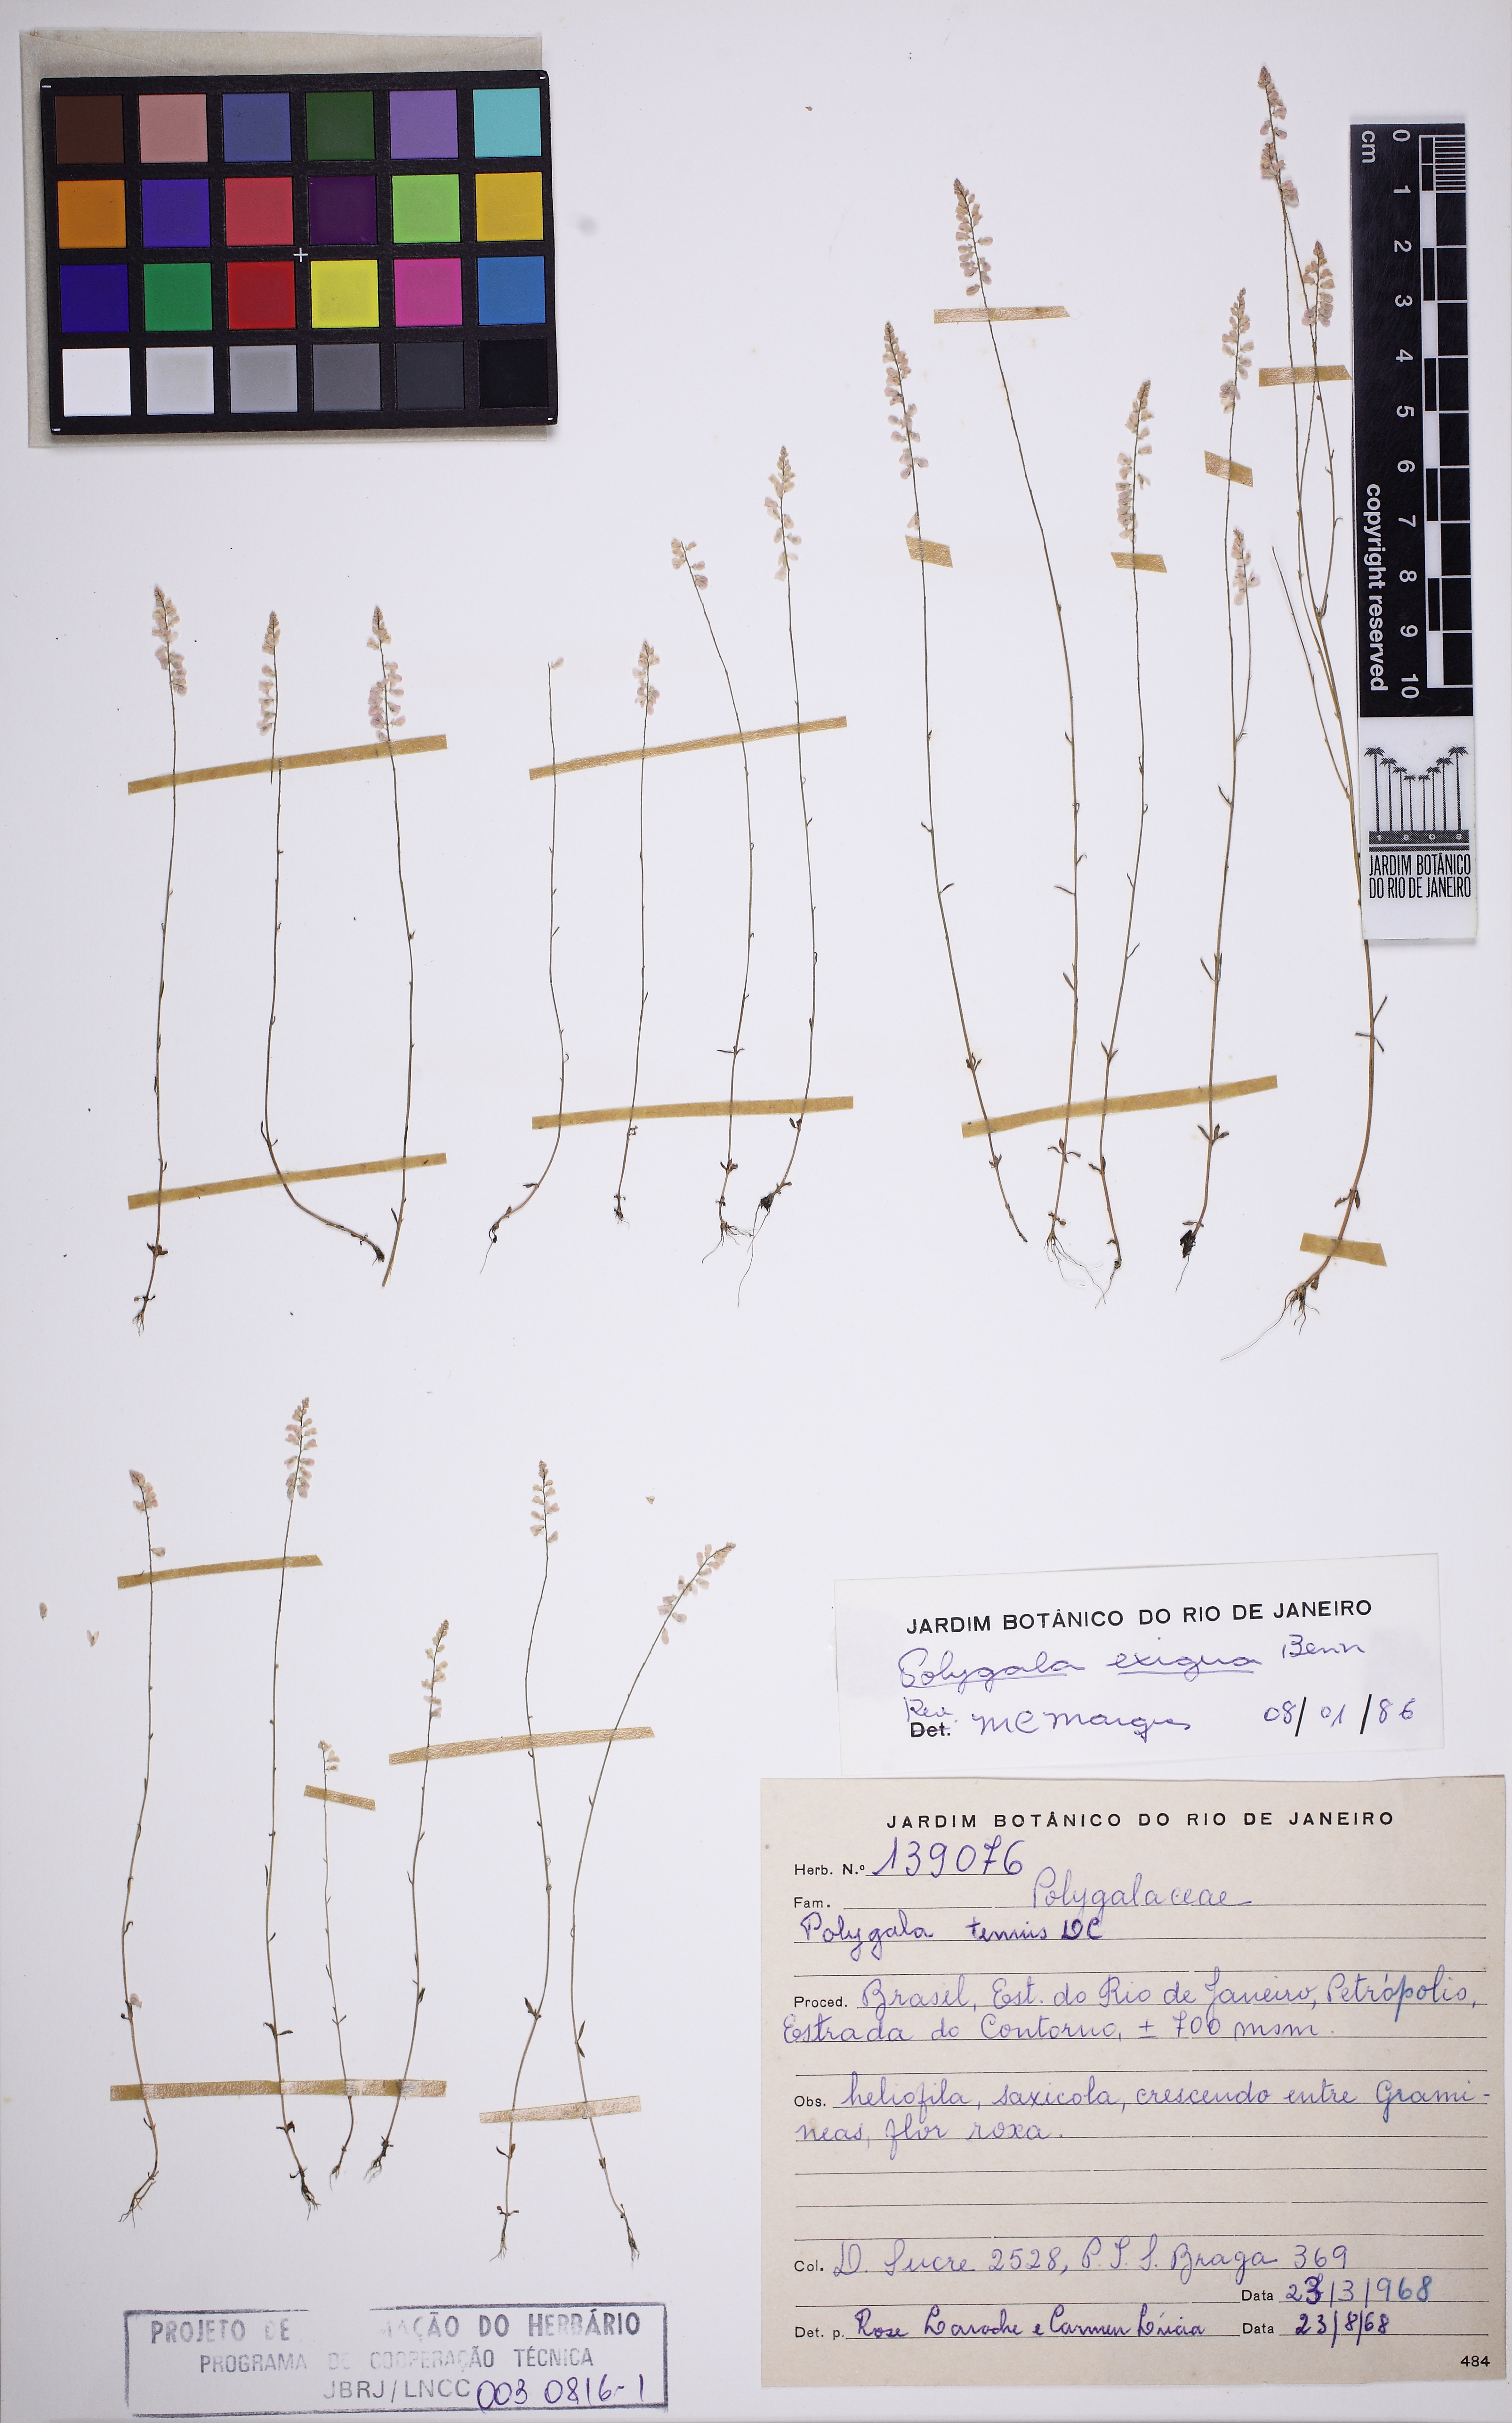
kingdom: Plantae
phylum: Tracheophyta
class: Magnoliopsida
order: Fabales
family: Polygalaceae
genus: Polygala
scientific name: Polygala
